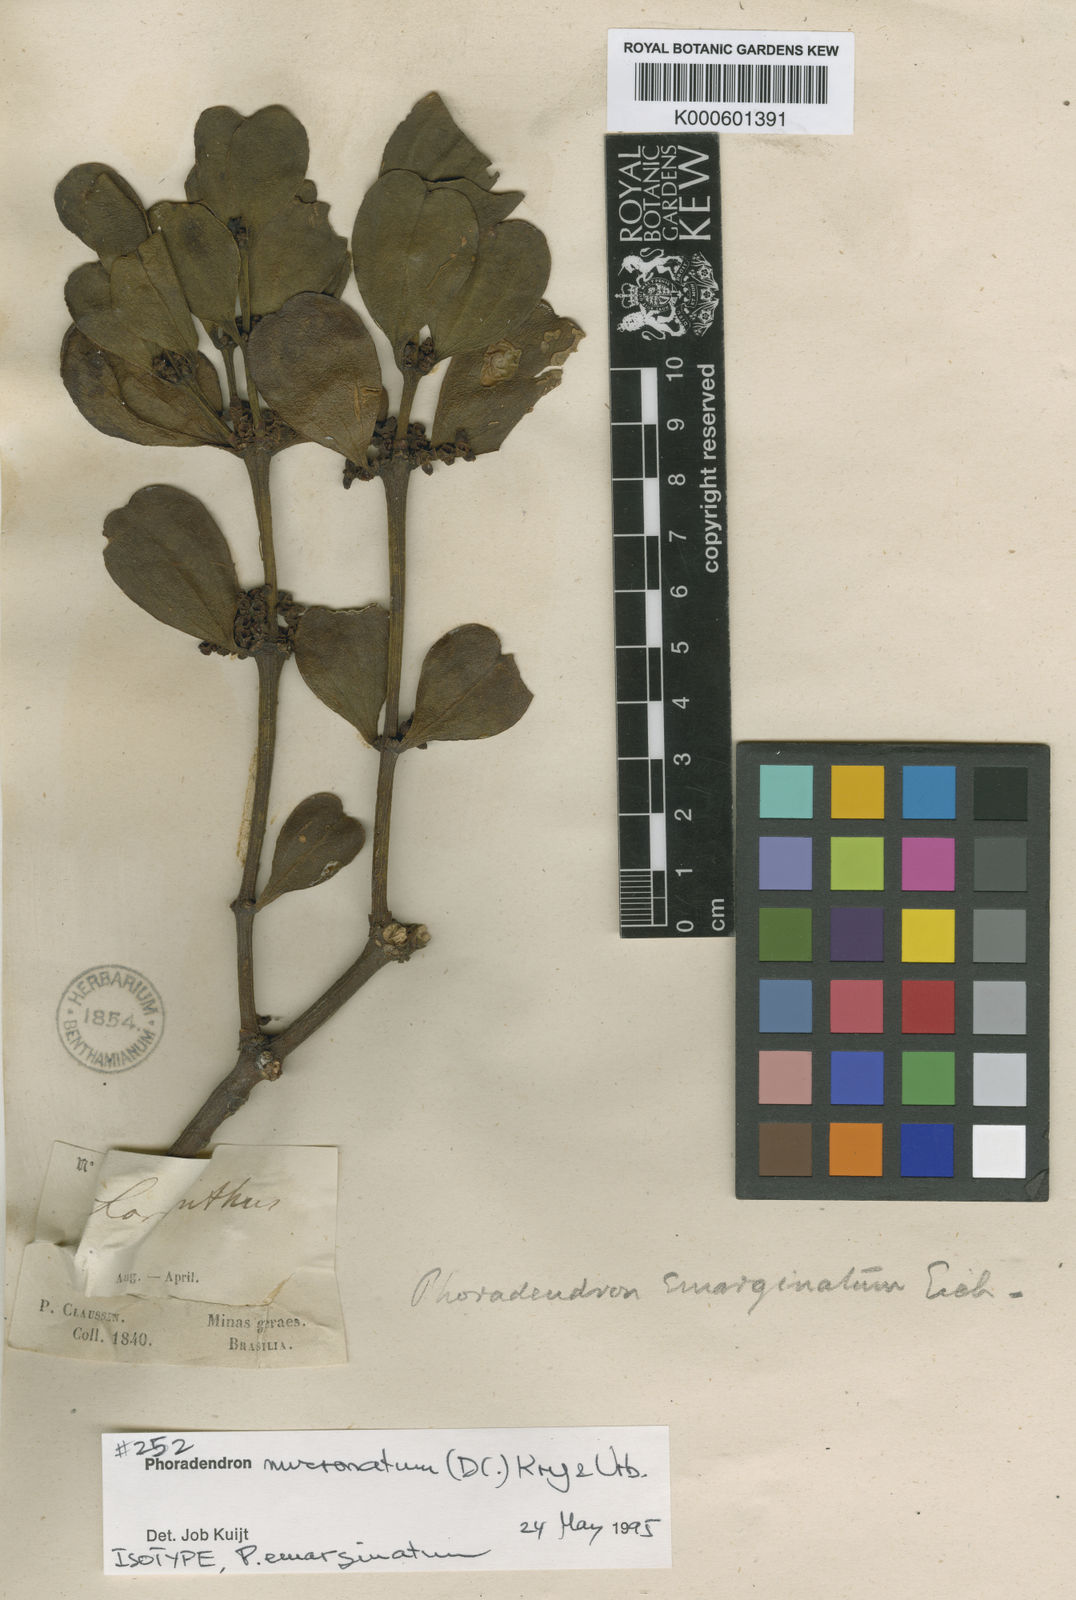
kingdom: Plantae
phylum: Tracheophyta
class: Magnoliopsida
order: Santalales
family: Viscaceae
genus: Phoradendron
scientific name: Phoradendron mucronatum
